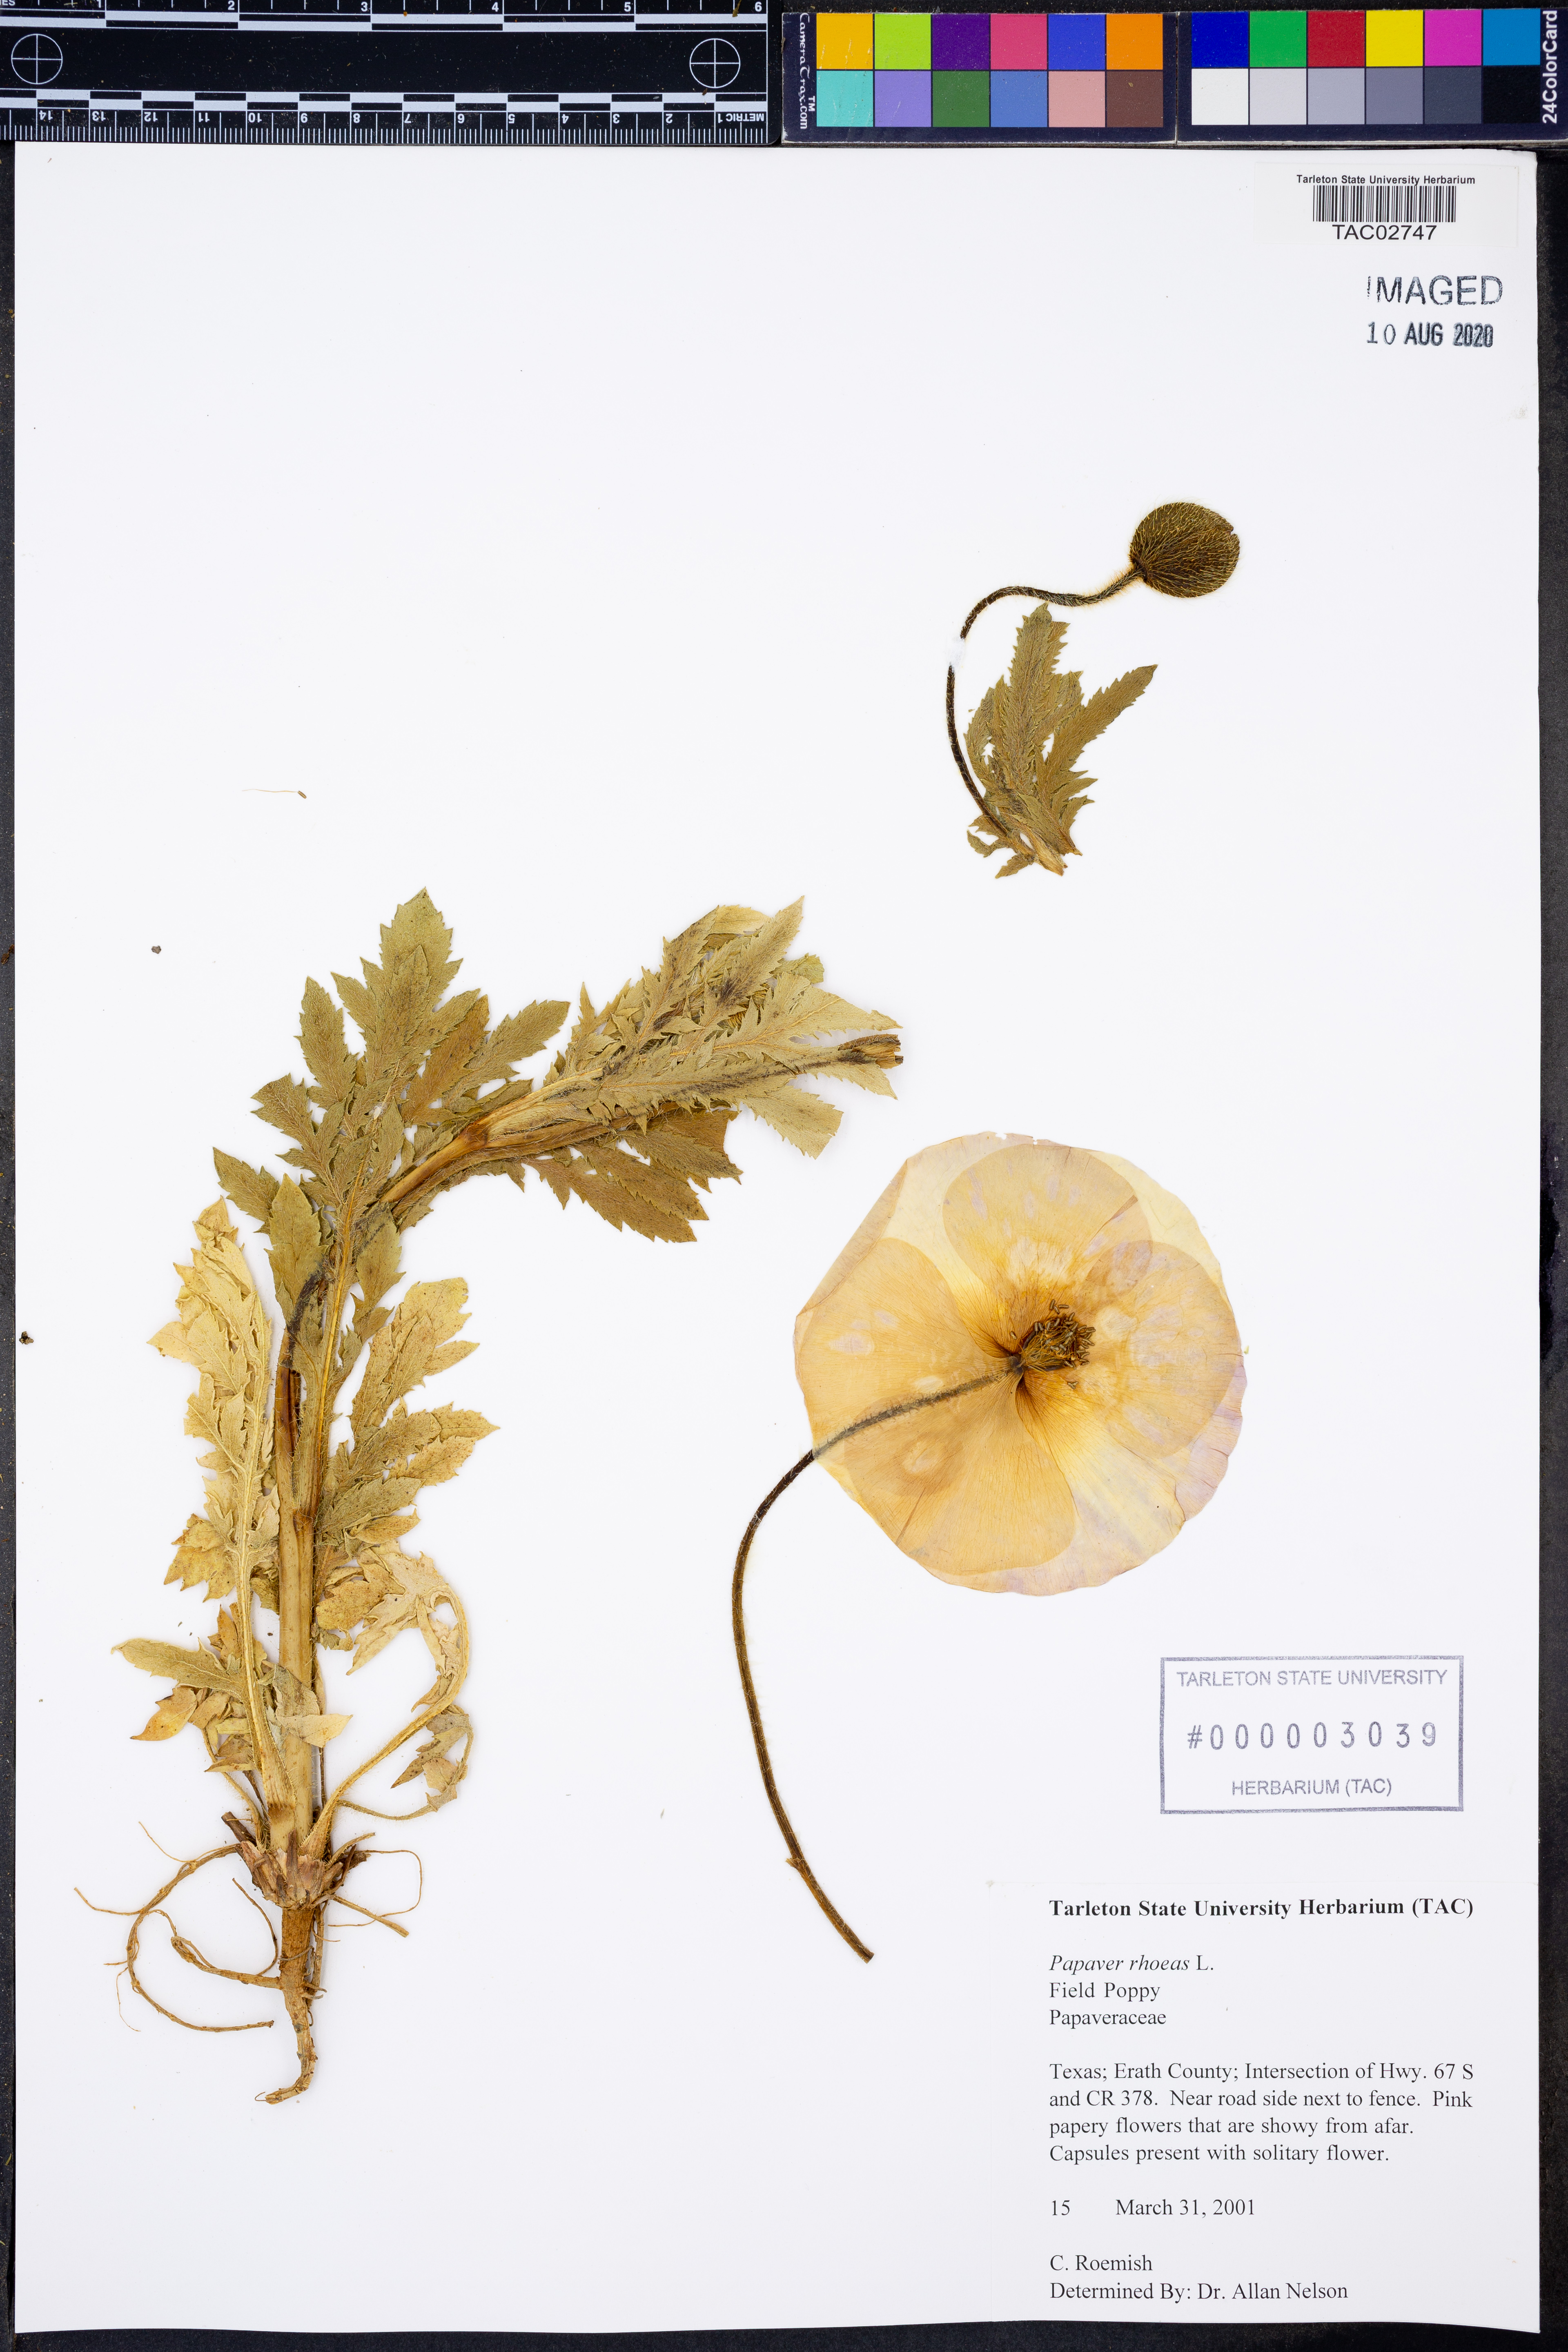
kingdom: Plantae
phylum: Tracheophyta
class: Magnoliopsida
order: Ranunculales
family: Papaveraceae
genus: Papaver
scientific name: Papaver rhoeas
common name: Corn poppy
